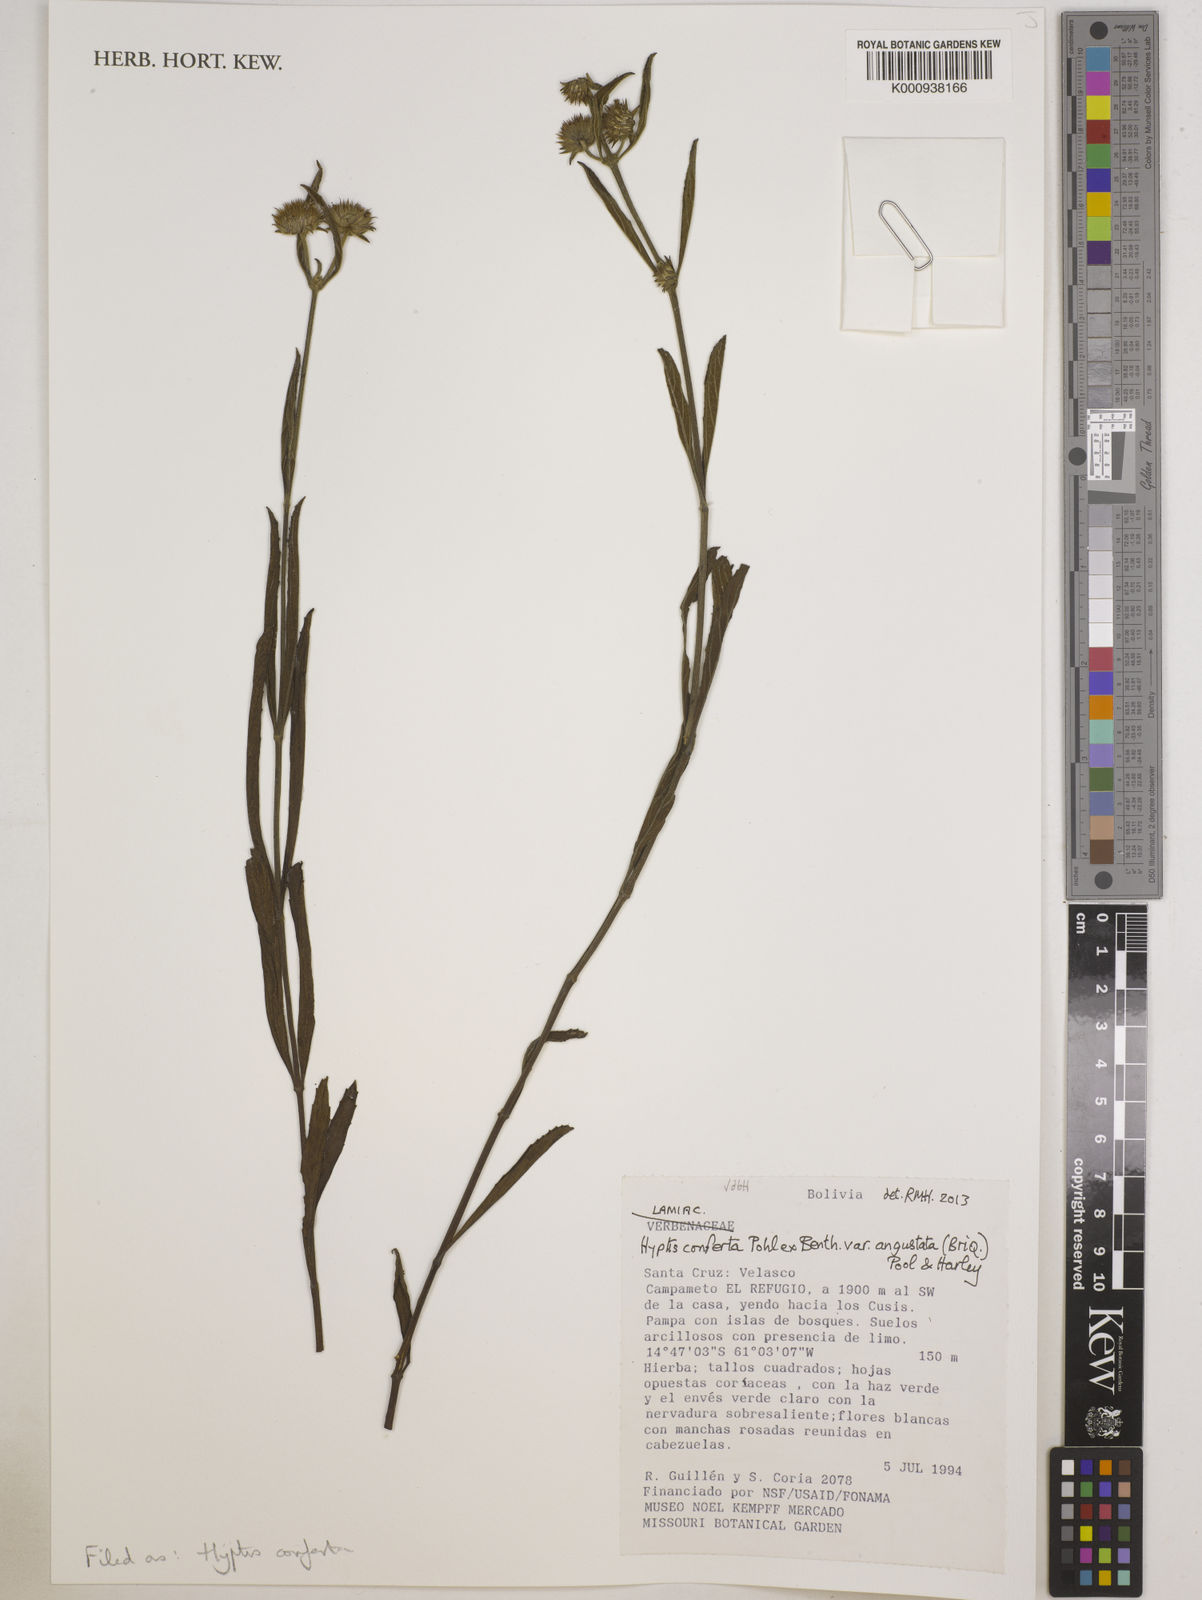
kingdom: Plantae
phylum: Tracheophyta
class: Magnoliopsida
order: Lamiales
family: Lamiaceae
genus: Hyptis
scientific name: Hyptis conferta
